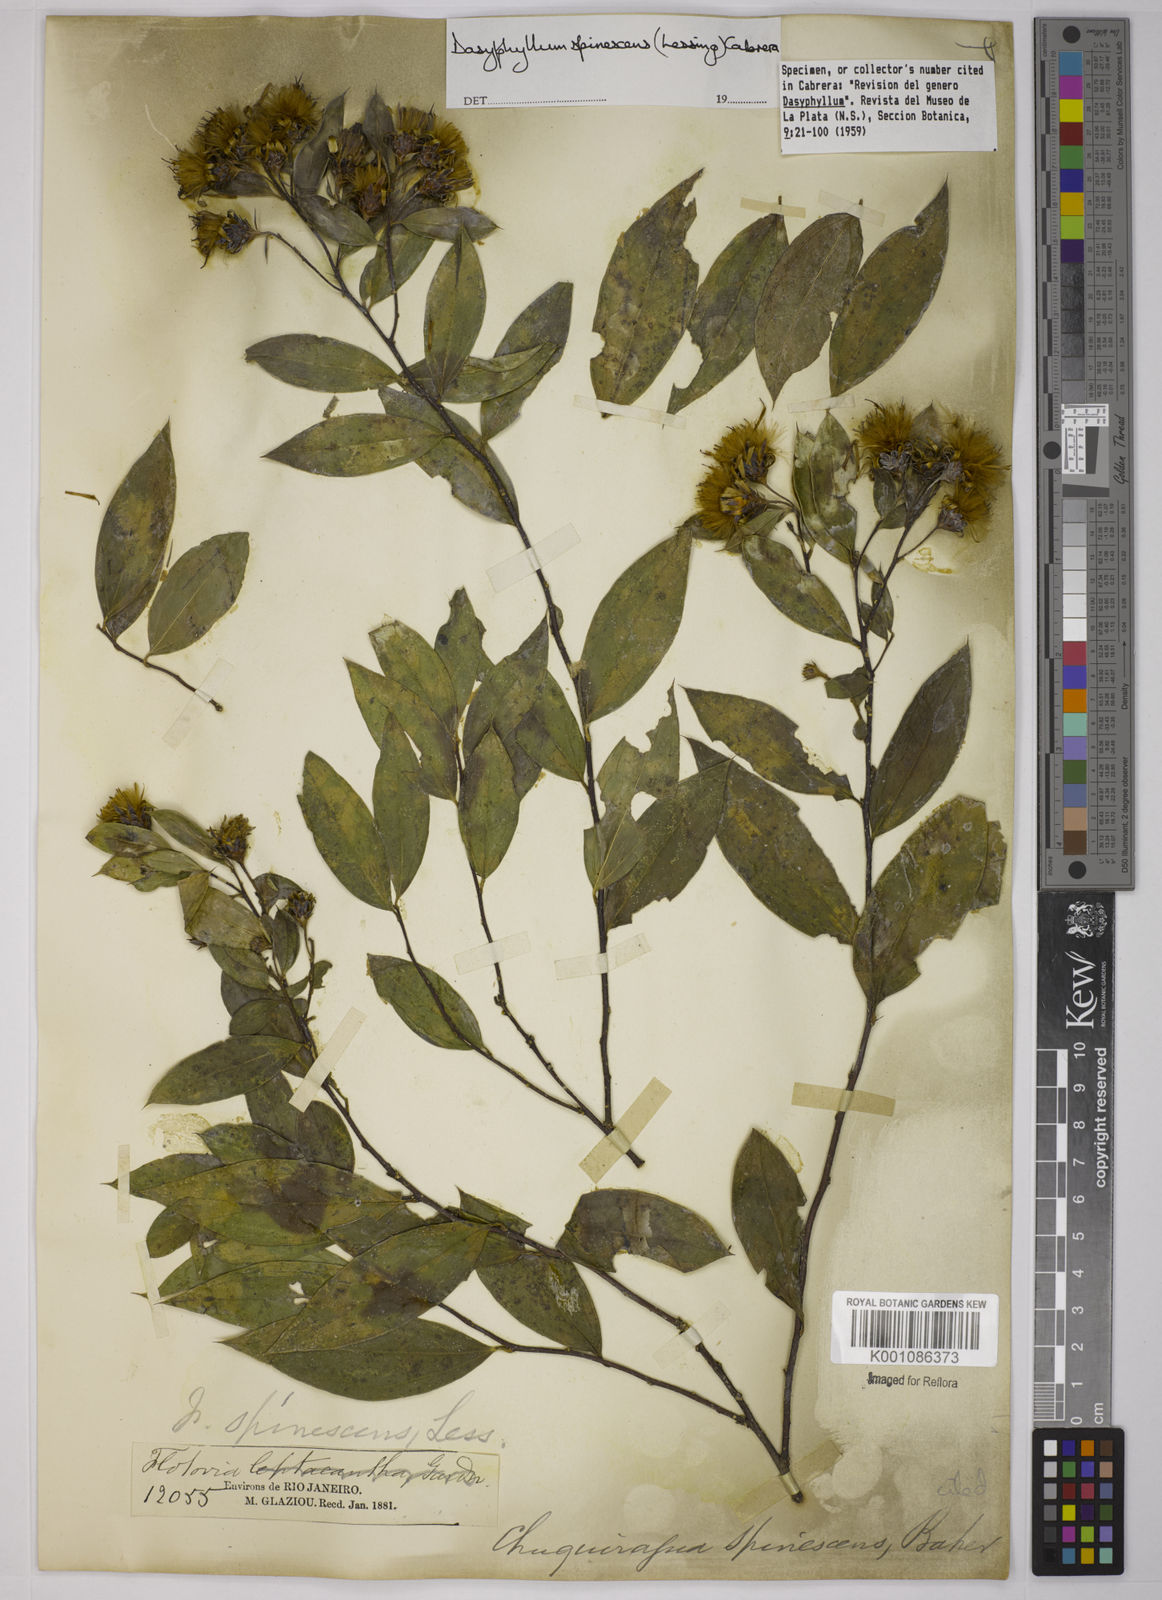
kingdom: Plantae
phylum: Tracheophyta
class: Magnoliopsida
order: Asterales
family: Asteraceae
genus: Dasyphyllum
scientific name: Dasyphyllum spinescens
